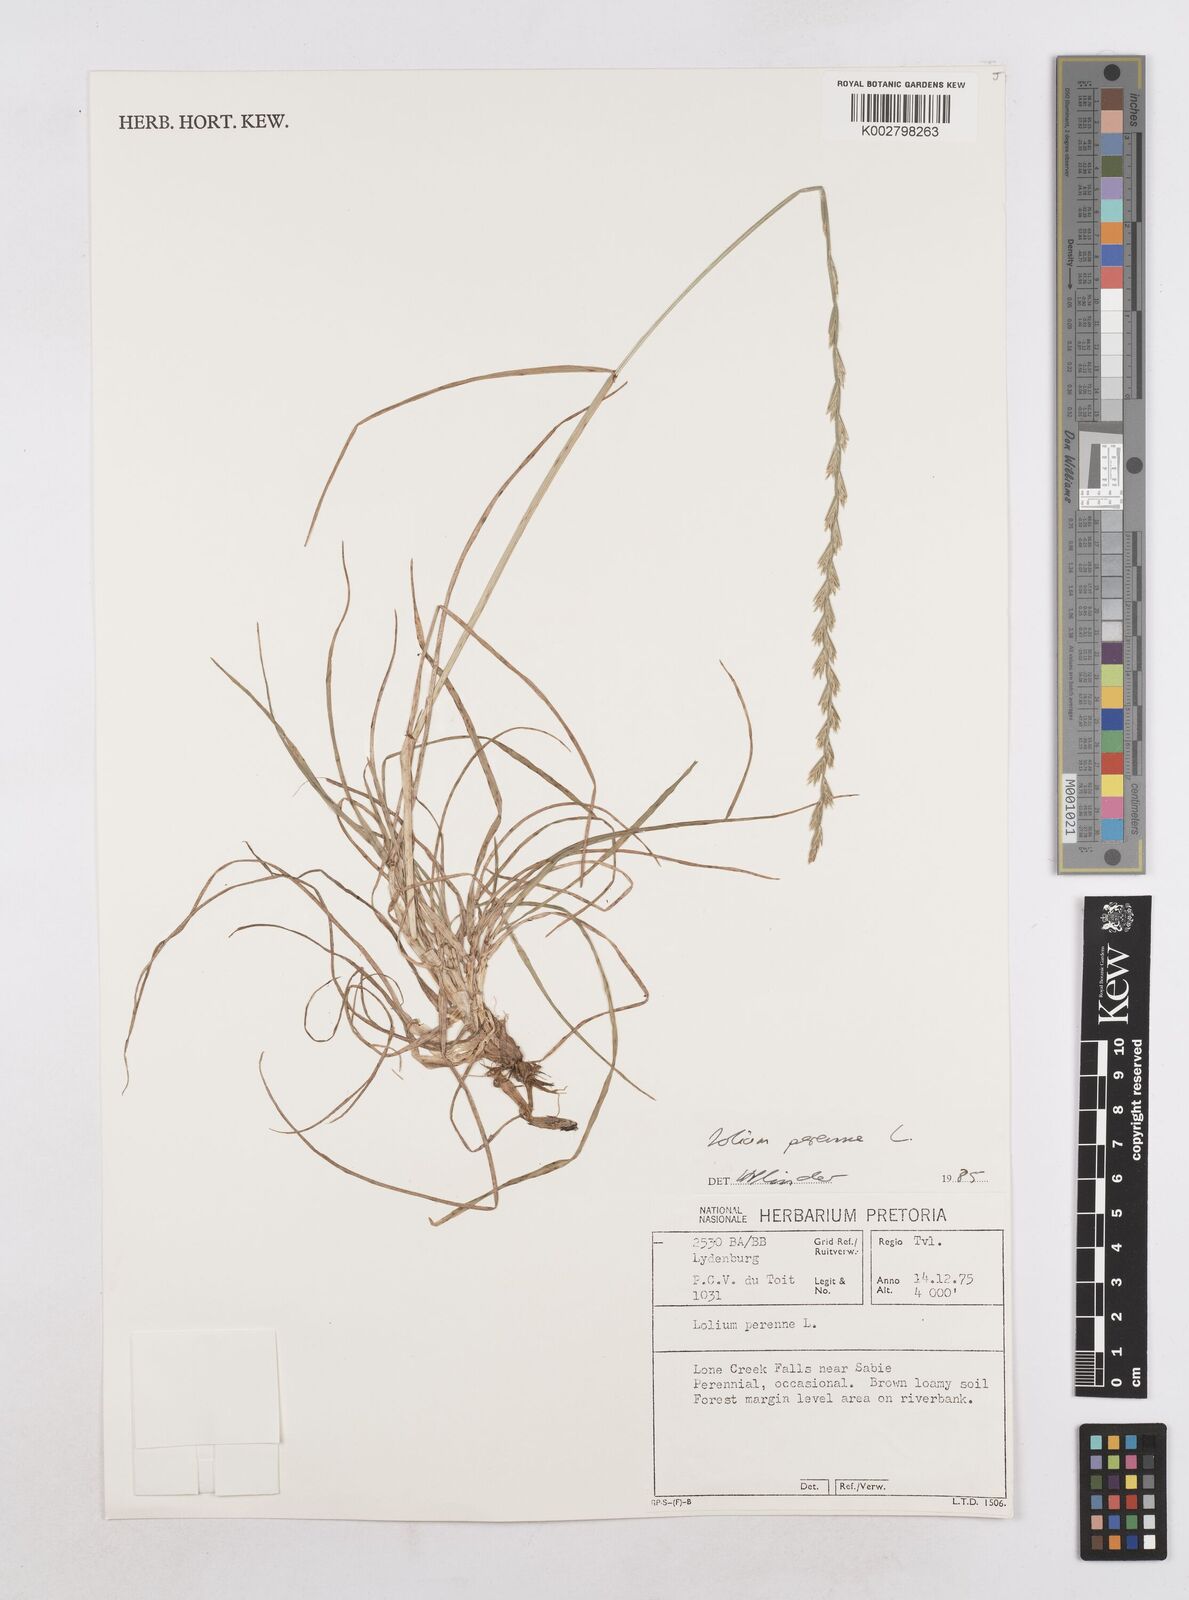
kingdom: Plantae
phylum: Tracheophyta
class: Liliopsida
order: Poales
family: Poaceae
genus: Lolium
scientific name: Lolium perenne
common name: Perennial ryegrass
